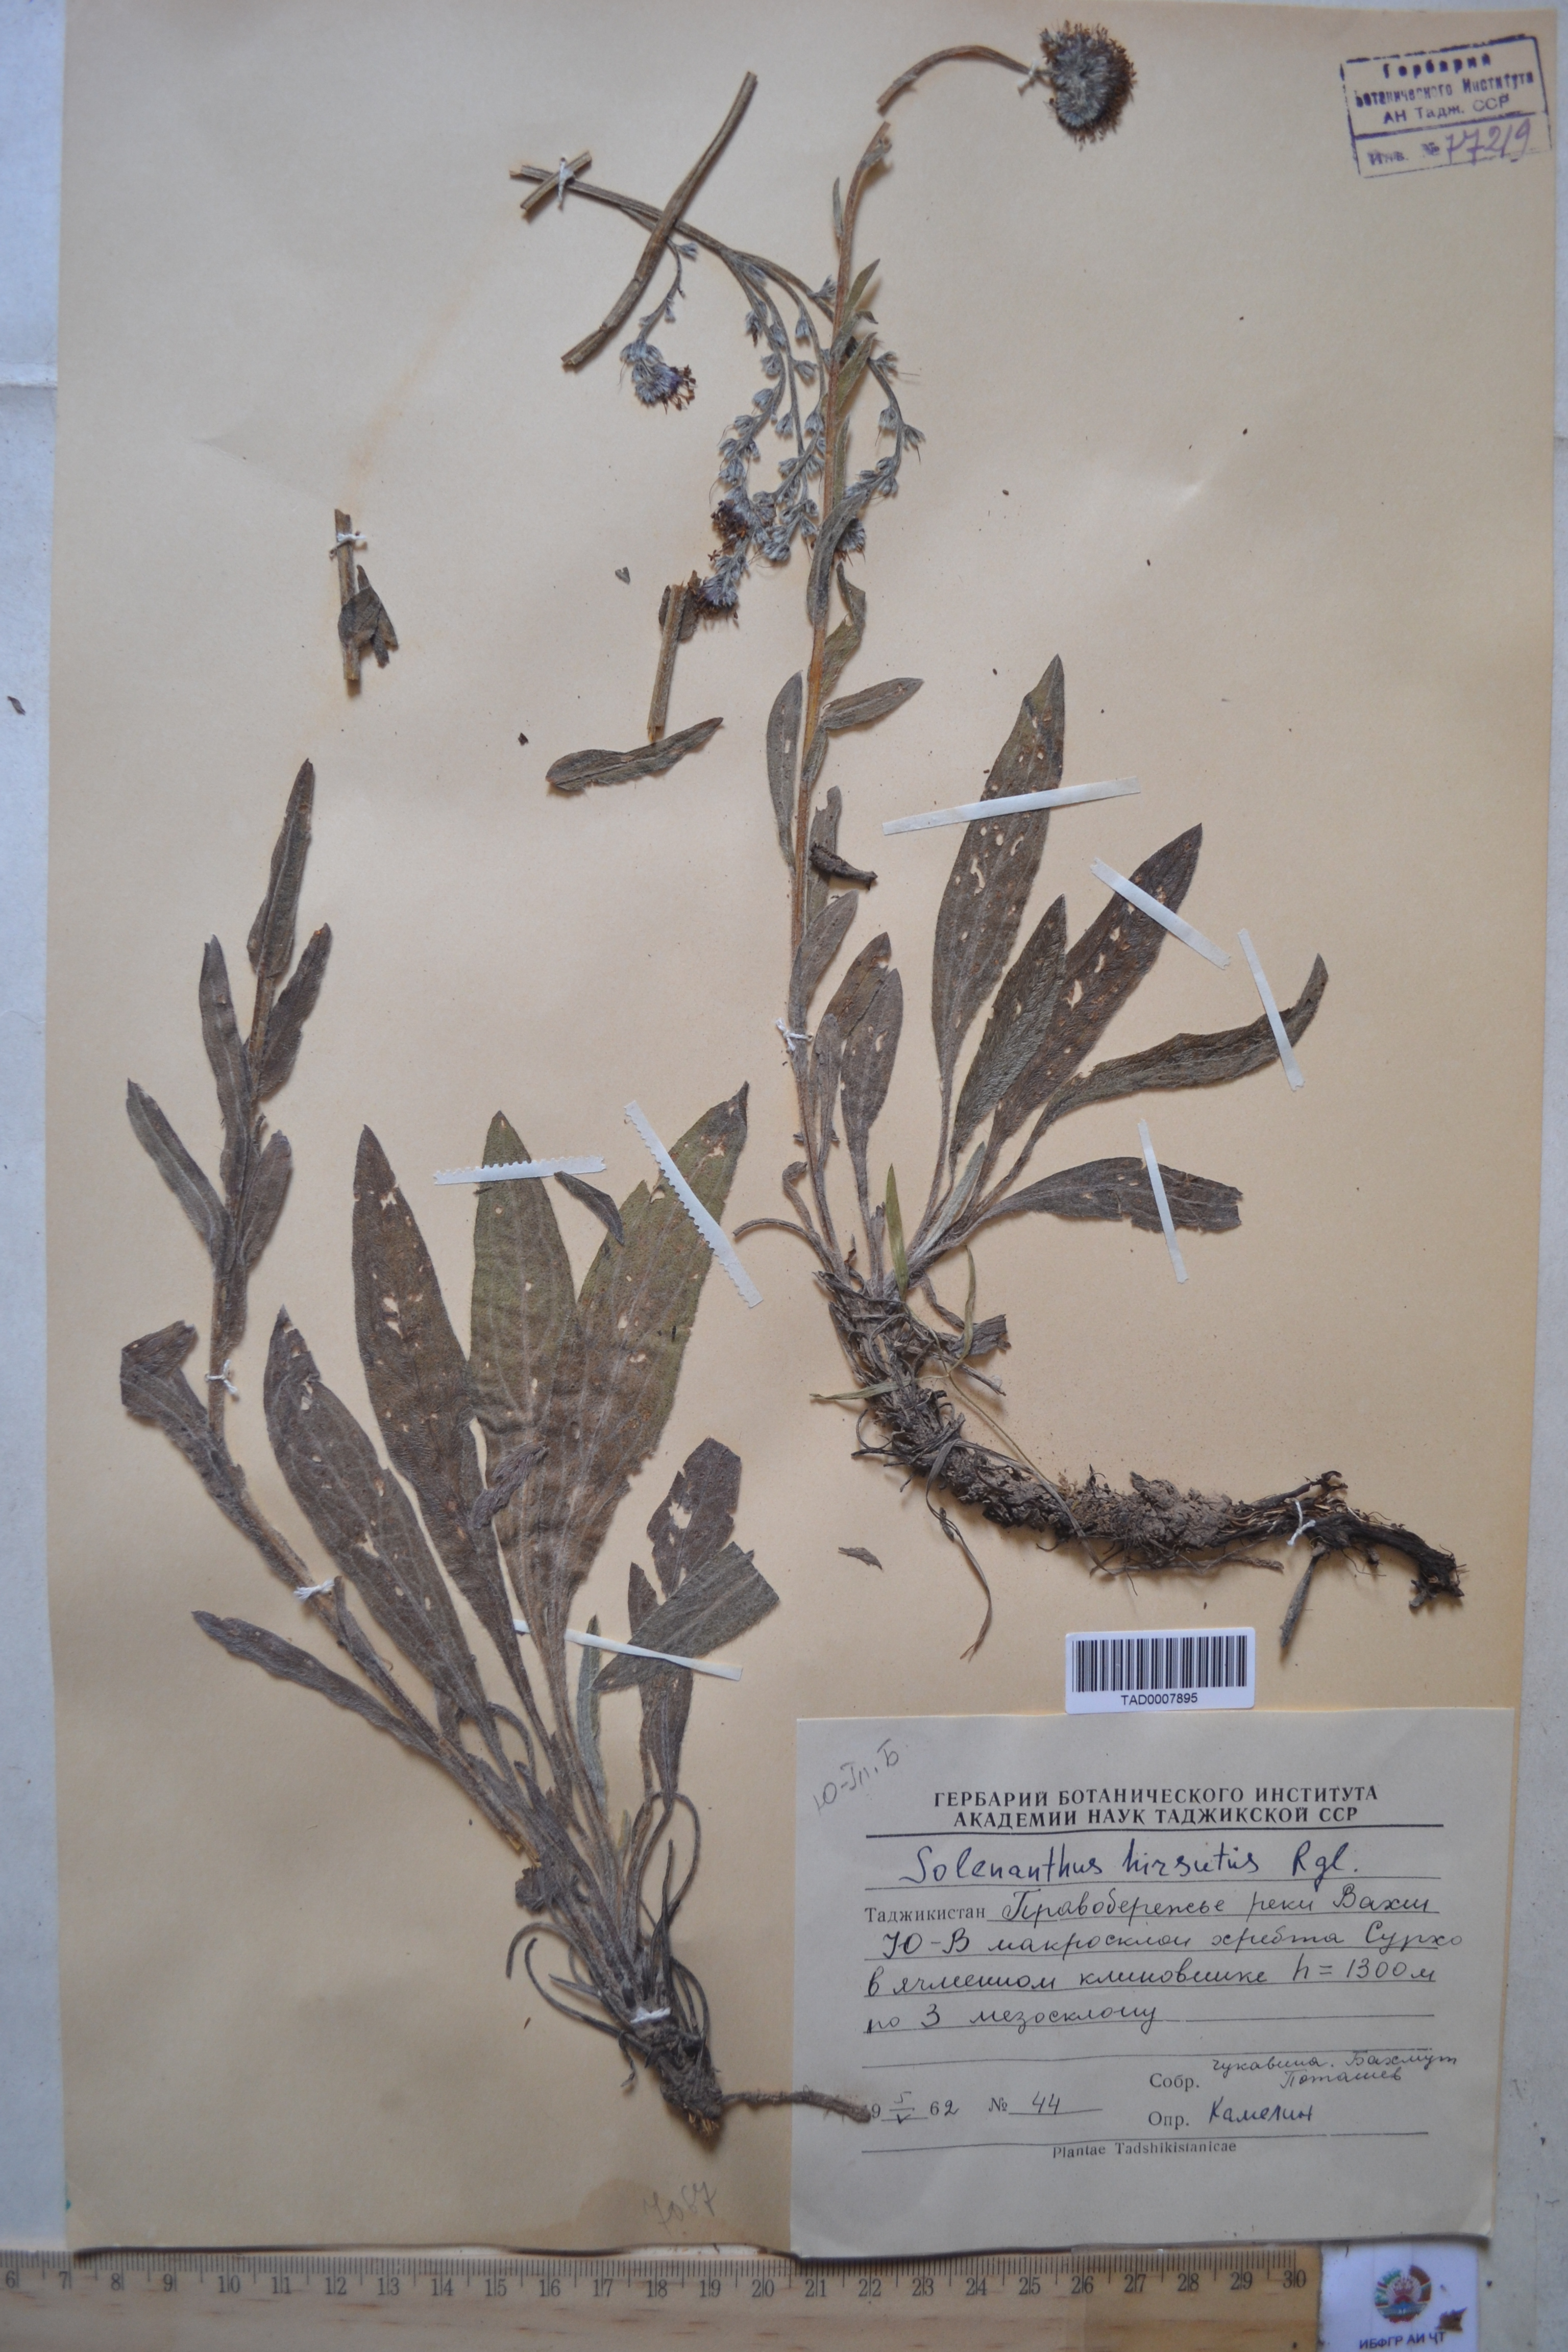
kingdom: Plantae
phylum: Tracheophyta
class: Magnoliopsida
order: Boraginales
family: Boraginaceae
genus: Solenanthus
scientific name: Solenanthus hirsutus
